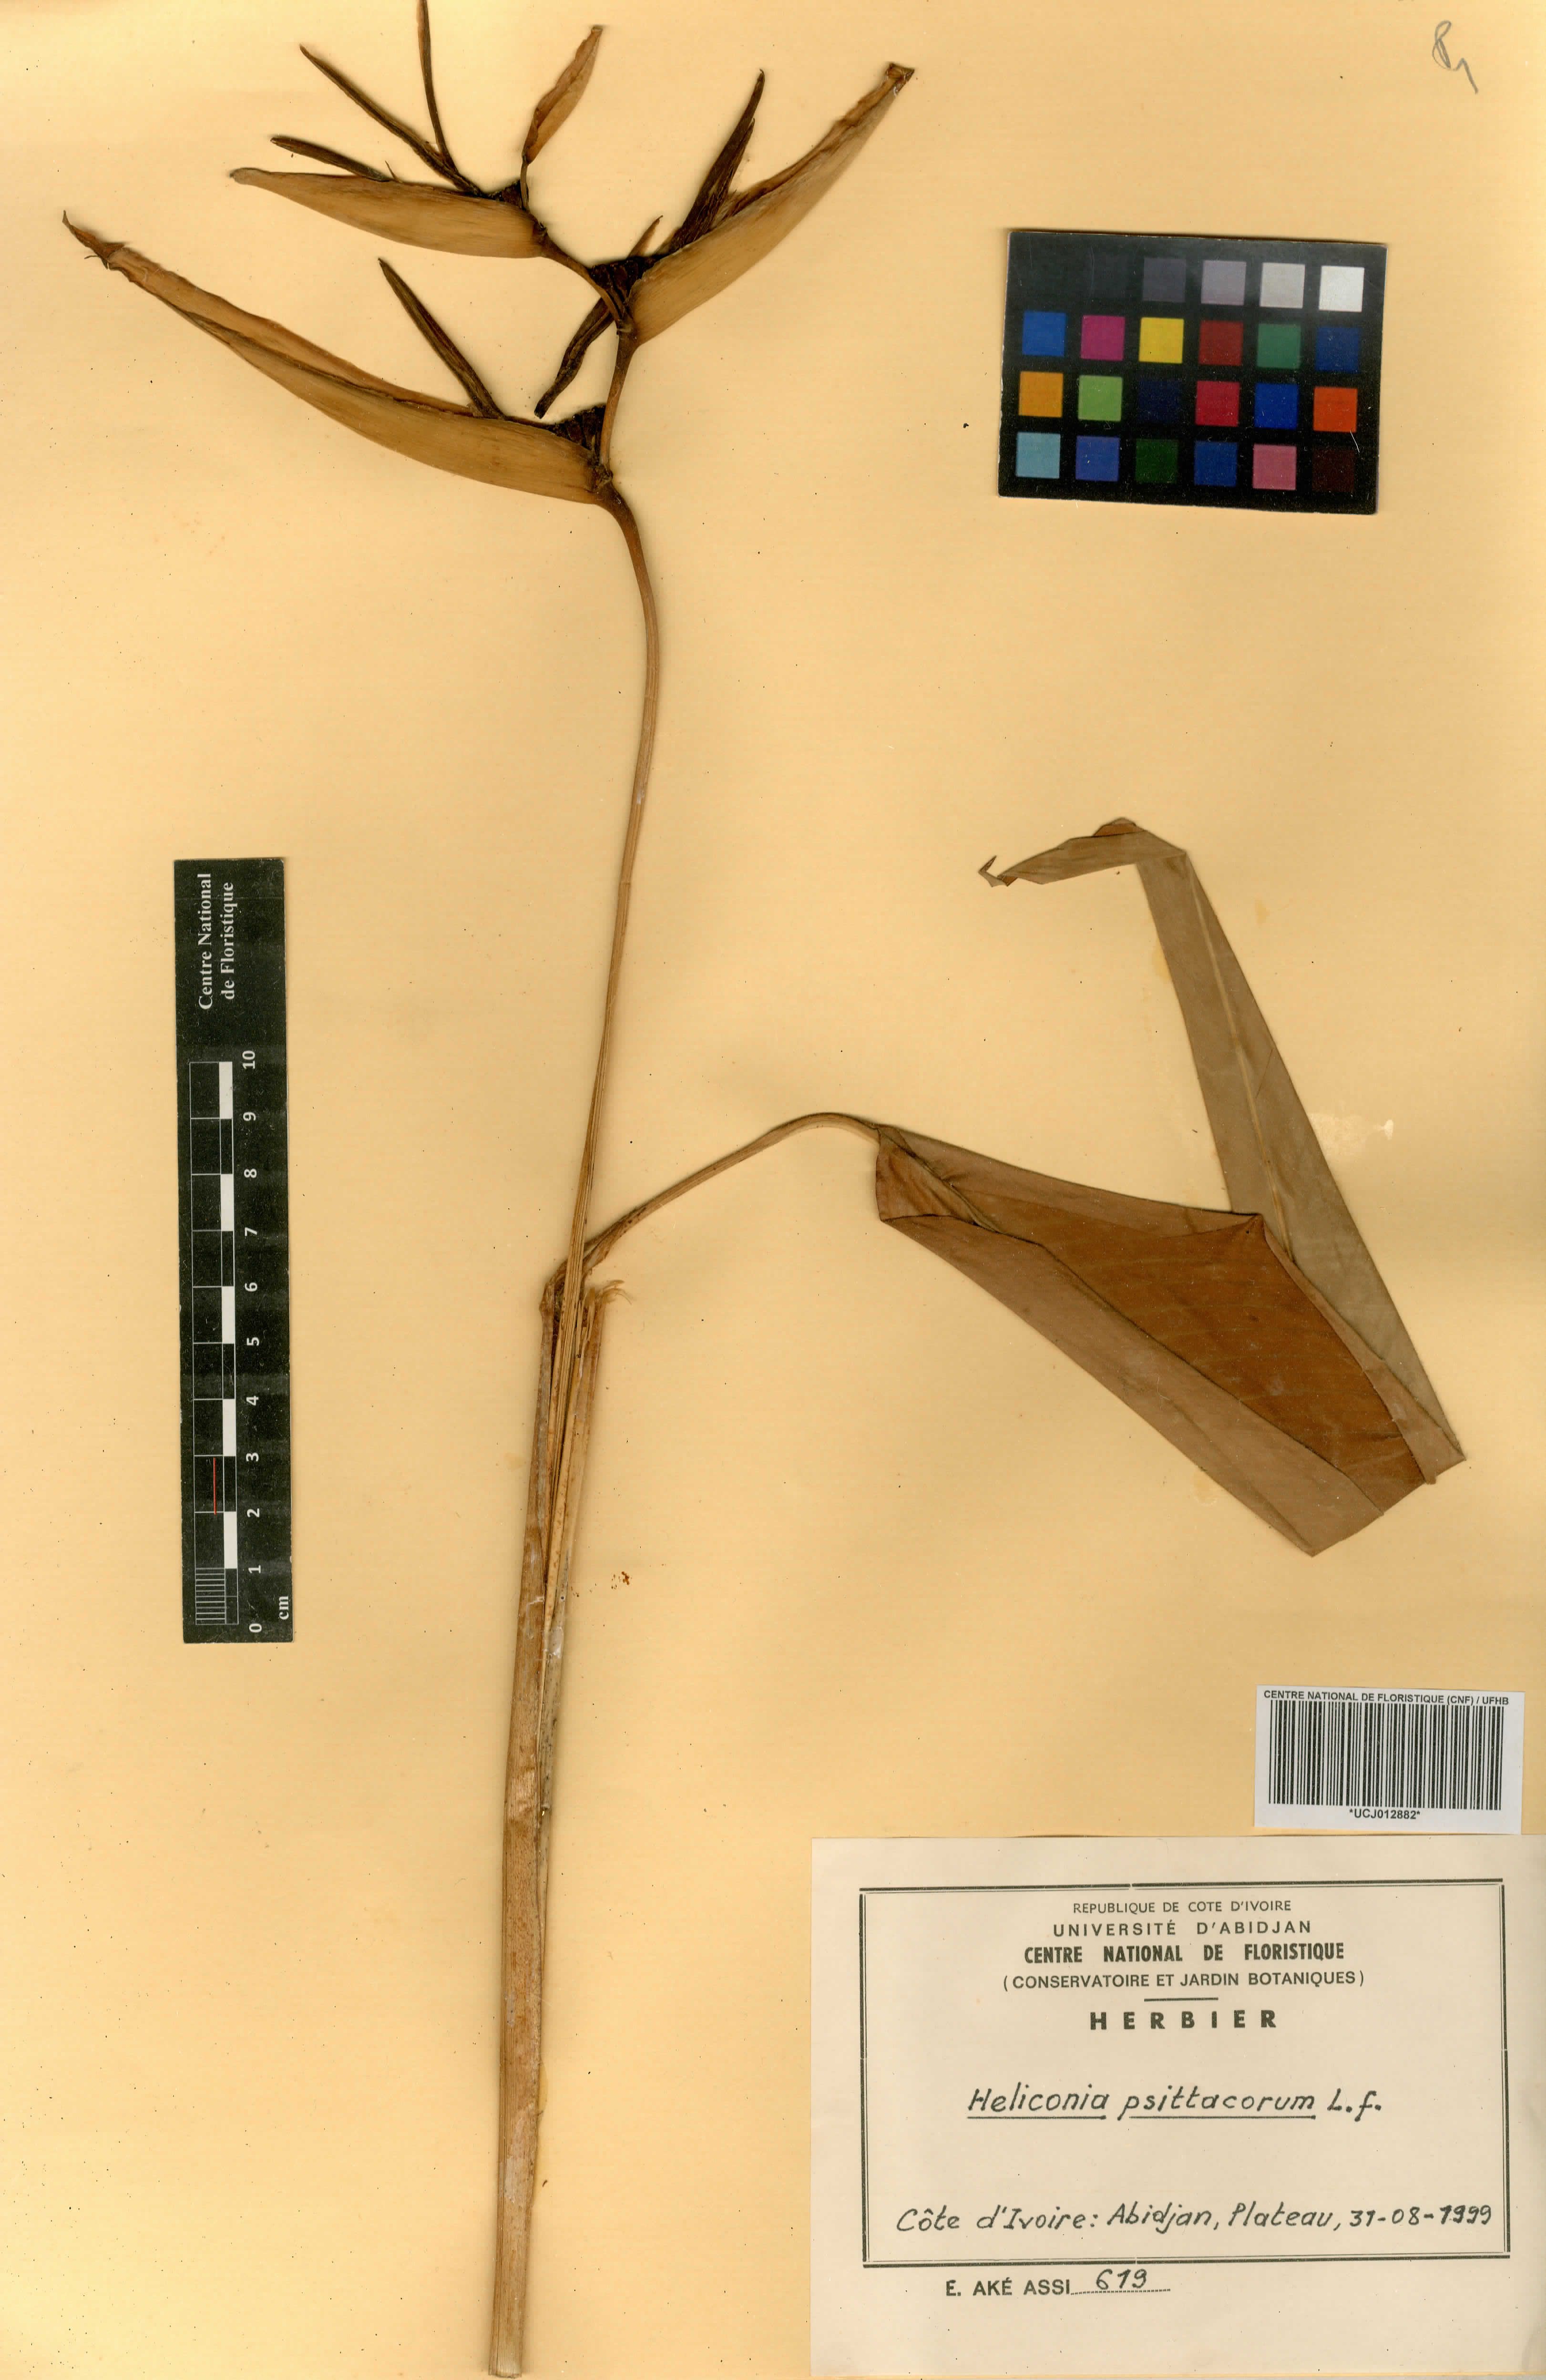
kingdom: Plantae
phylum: Tracheophyta
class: Liliopsida
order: Zingiberales
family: Heliconiaceae
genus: Heliconia
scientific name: Heliconia psittacorum
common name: Parrot's-flower
